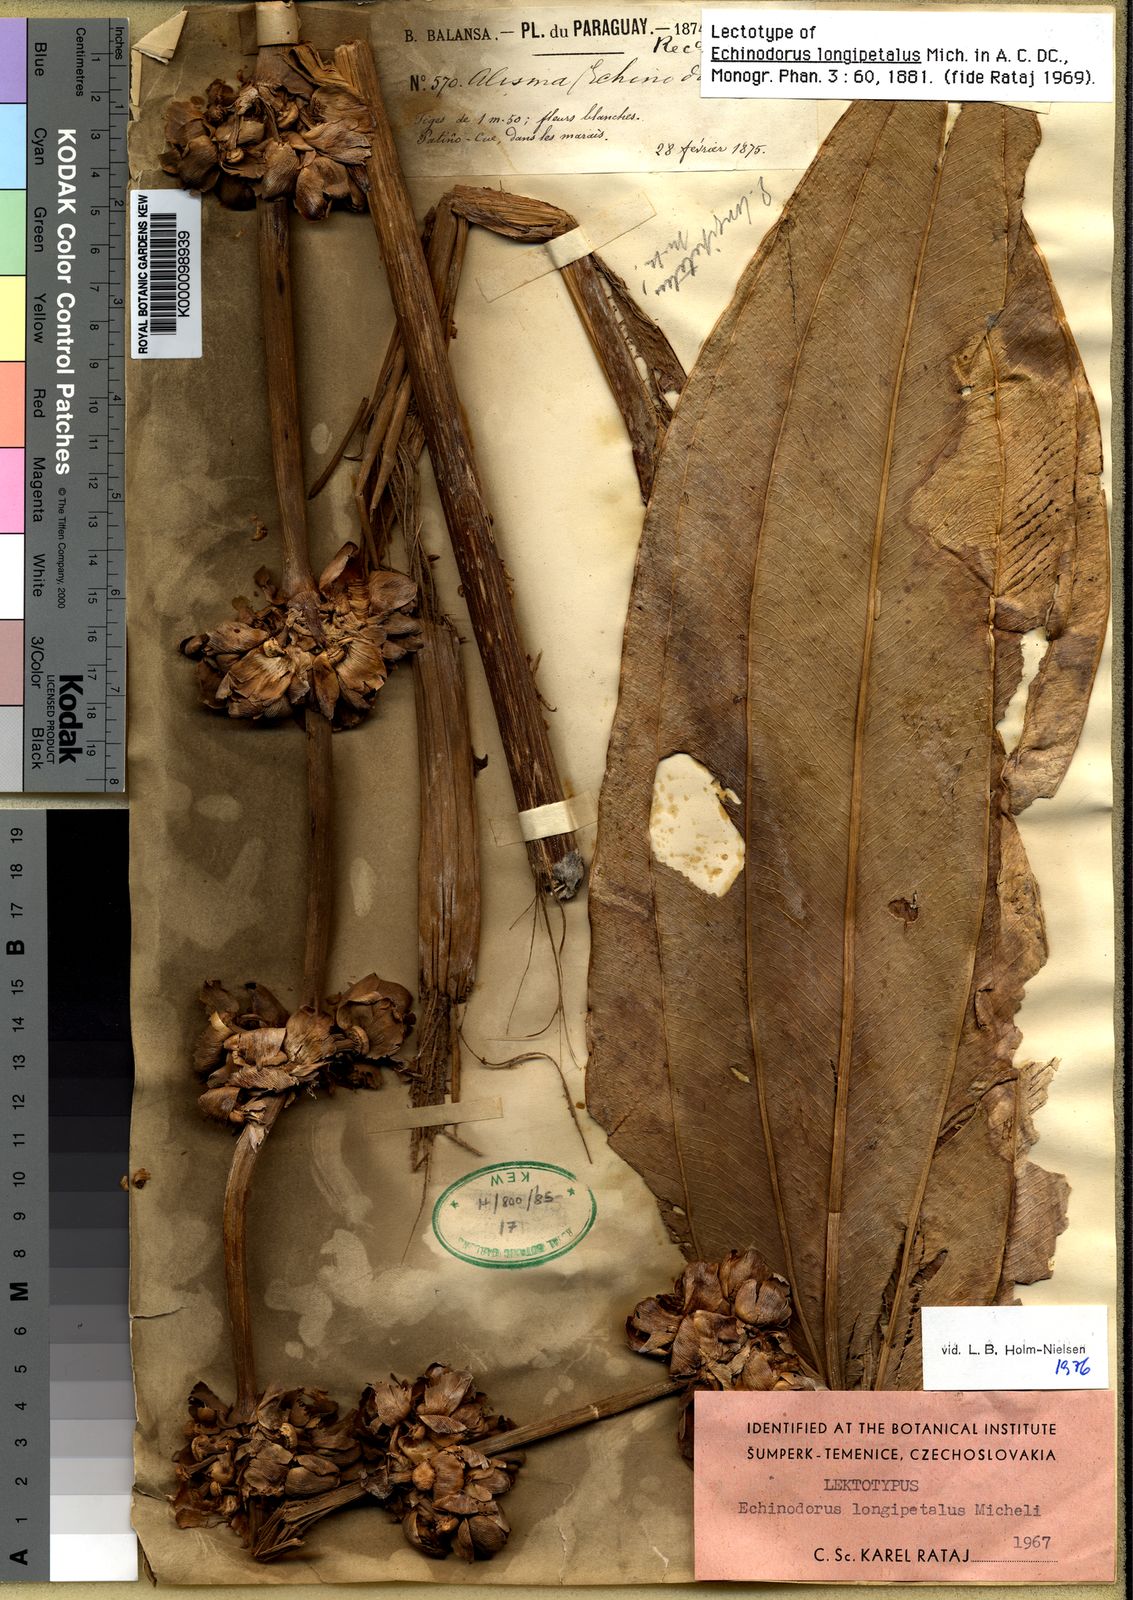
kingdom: Plantae
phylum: Tracheophyta
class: Liliopsida
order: Alismatales
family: Alismataceae
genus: Aquarius
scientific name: Aquarius longipetalus
